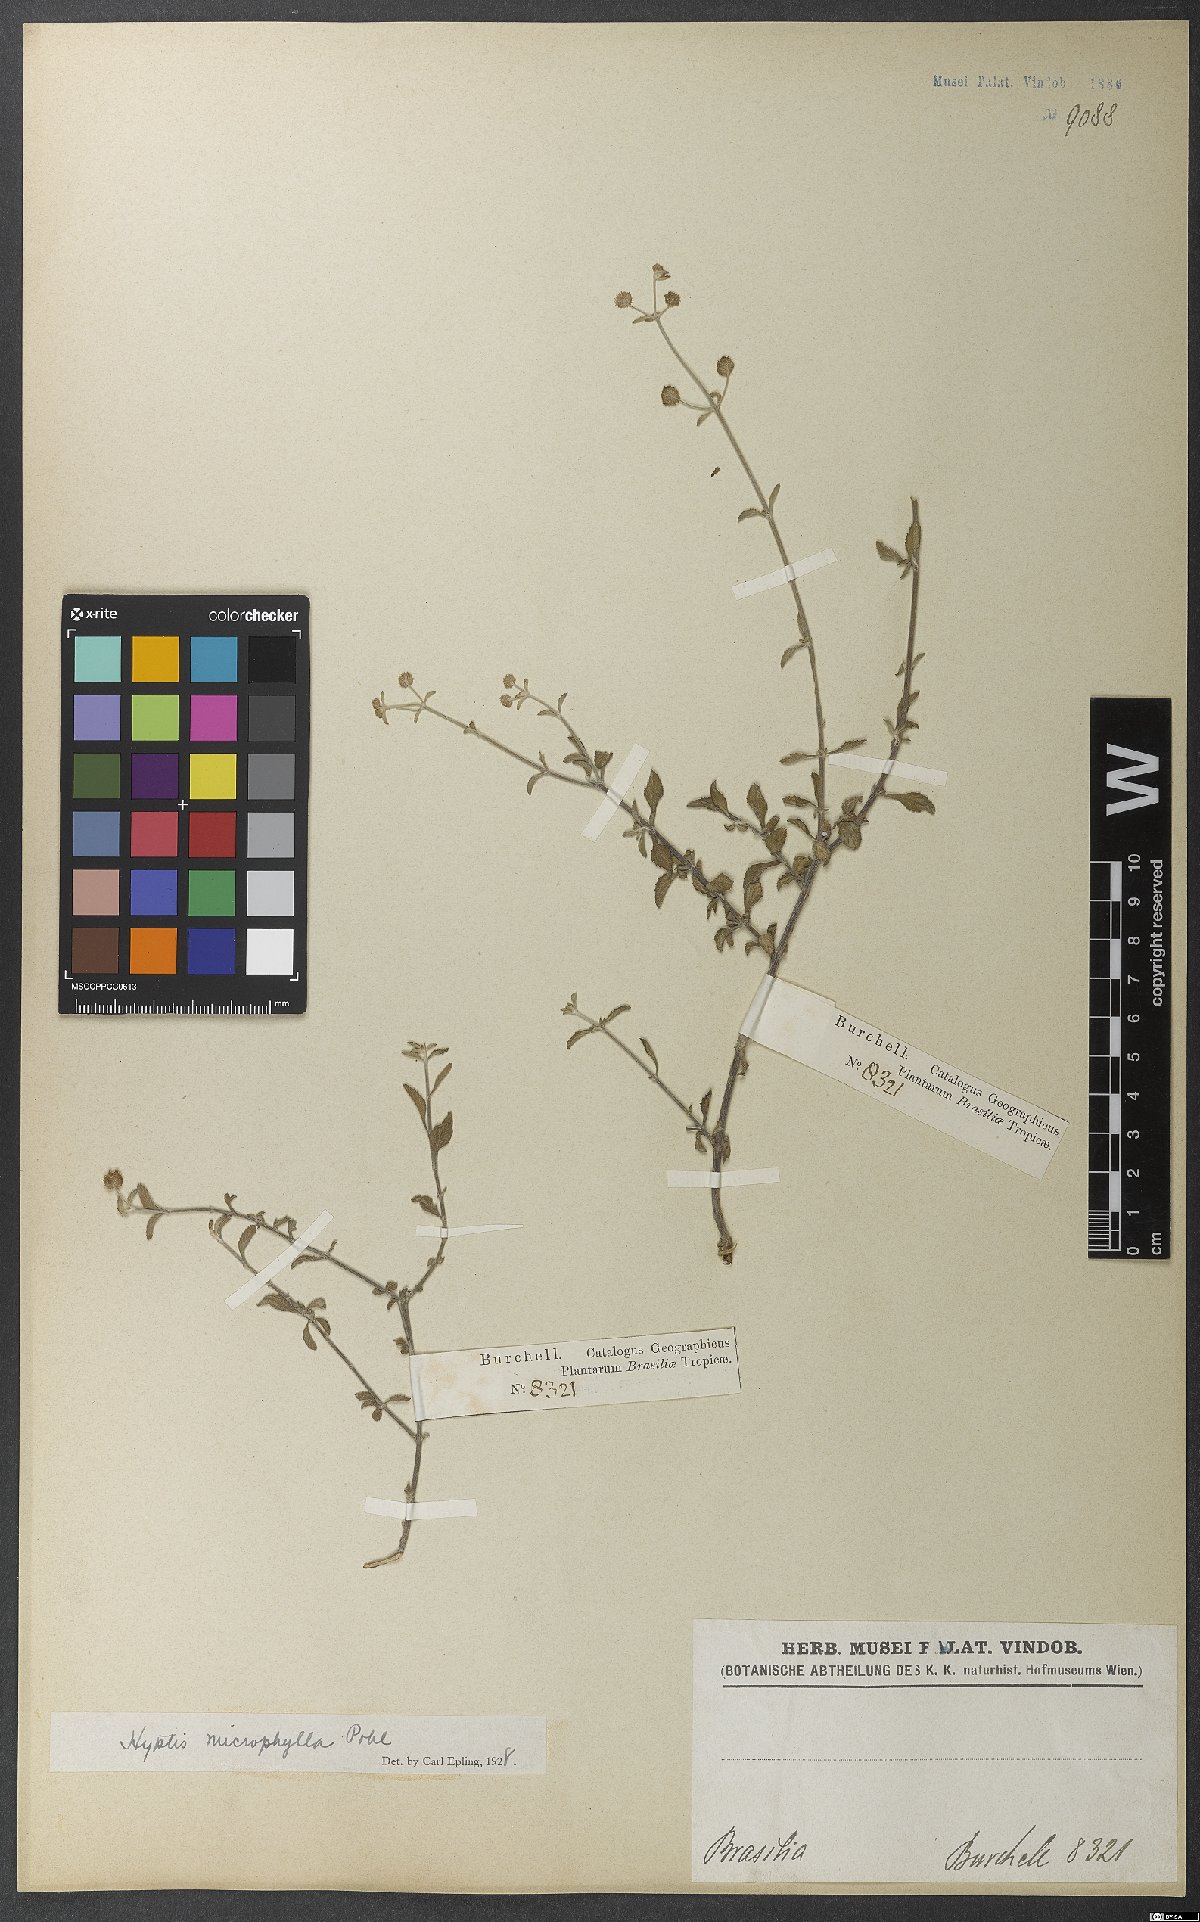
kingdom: Plantae
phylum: Tracheophyta
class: Magnoliopsida
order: Lamiales
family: Lamiaceae
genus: Hyptis
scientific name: Hyptis microphylla
